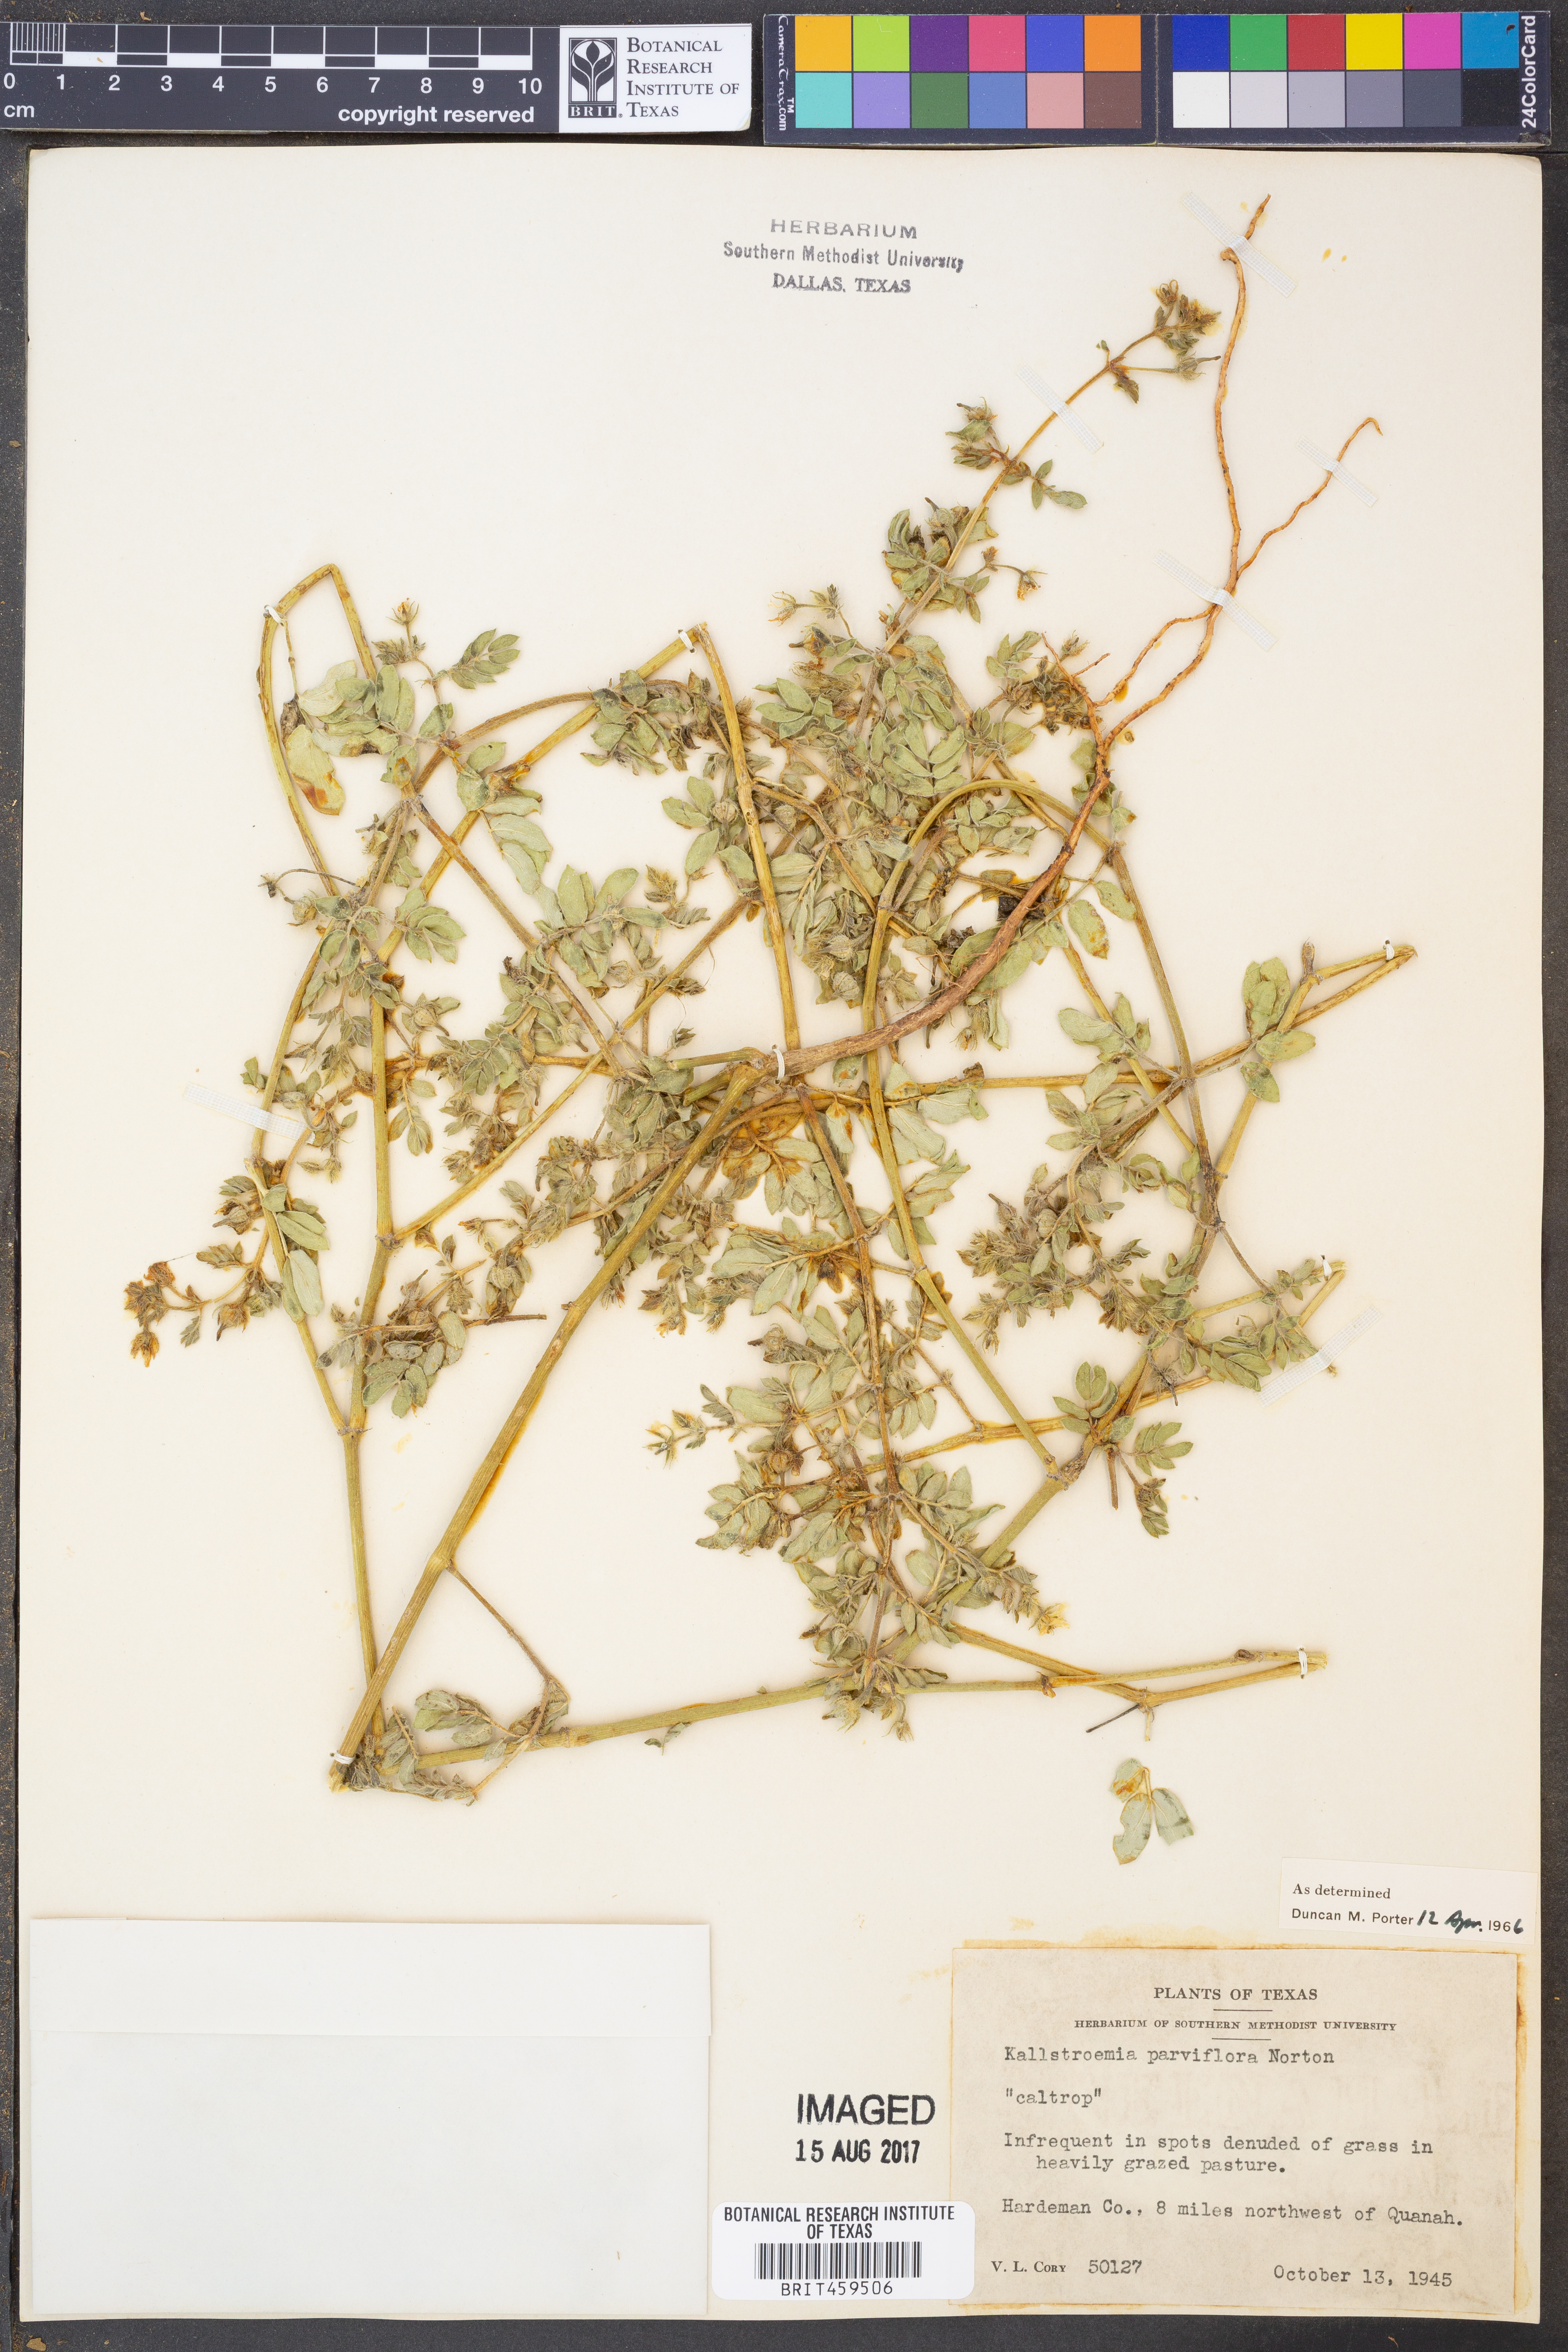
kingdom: Plantae
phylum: Tracheophyta
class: Magnoliopsida
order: Zygophyllales
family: Zygophyllaceae
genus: Kallstroemia
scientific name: Kallstroemia parviflora
